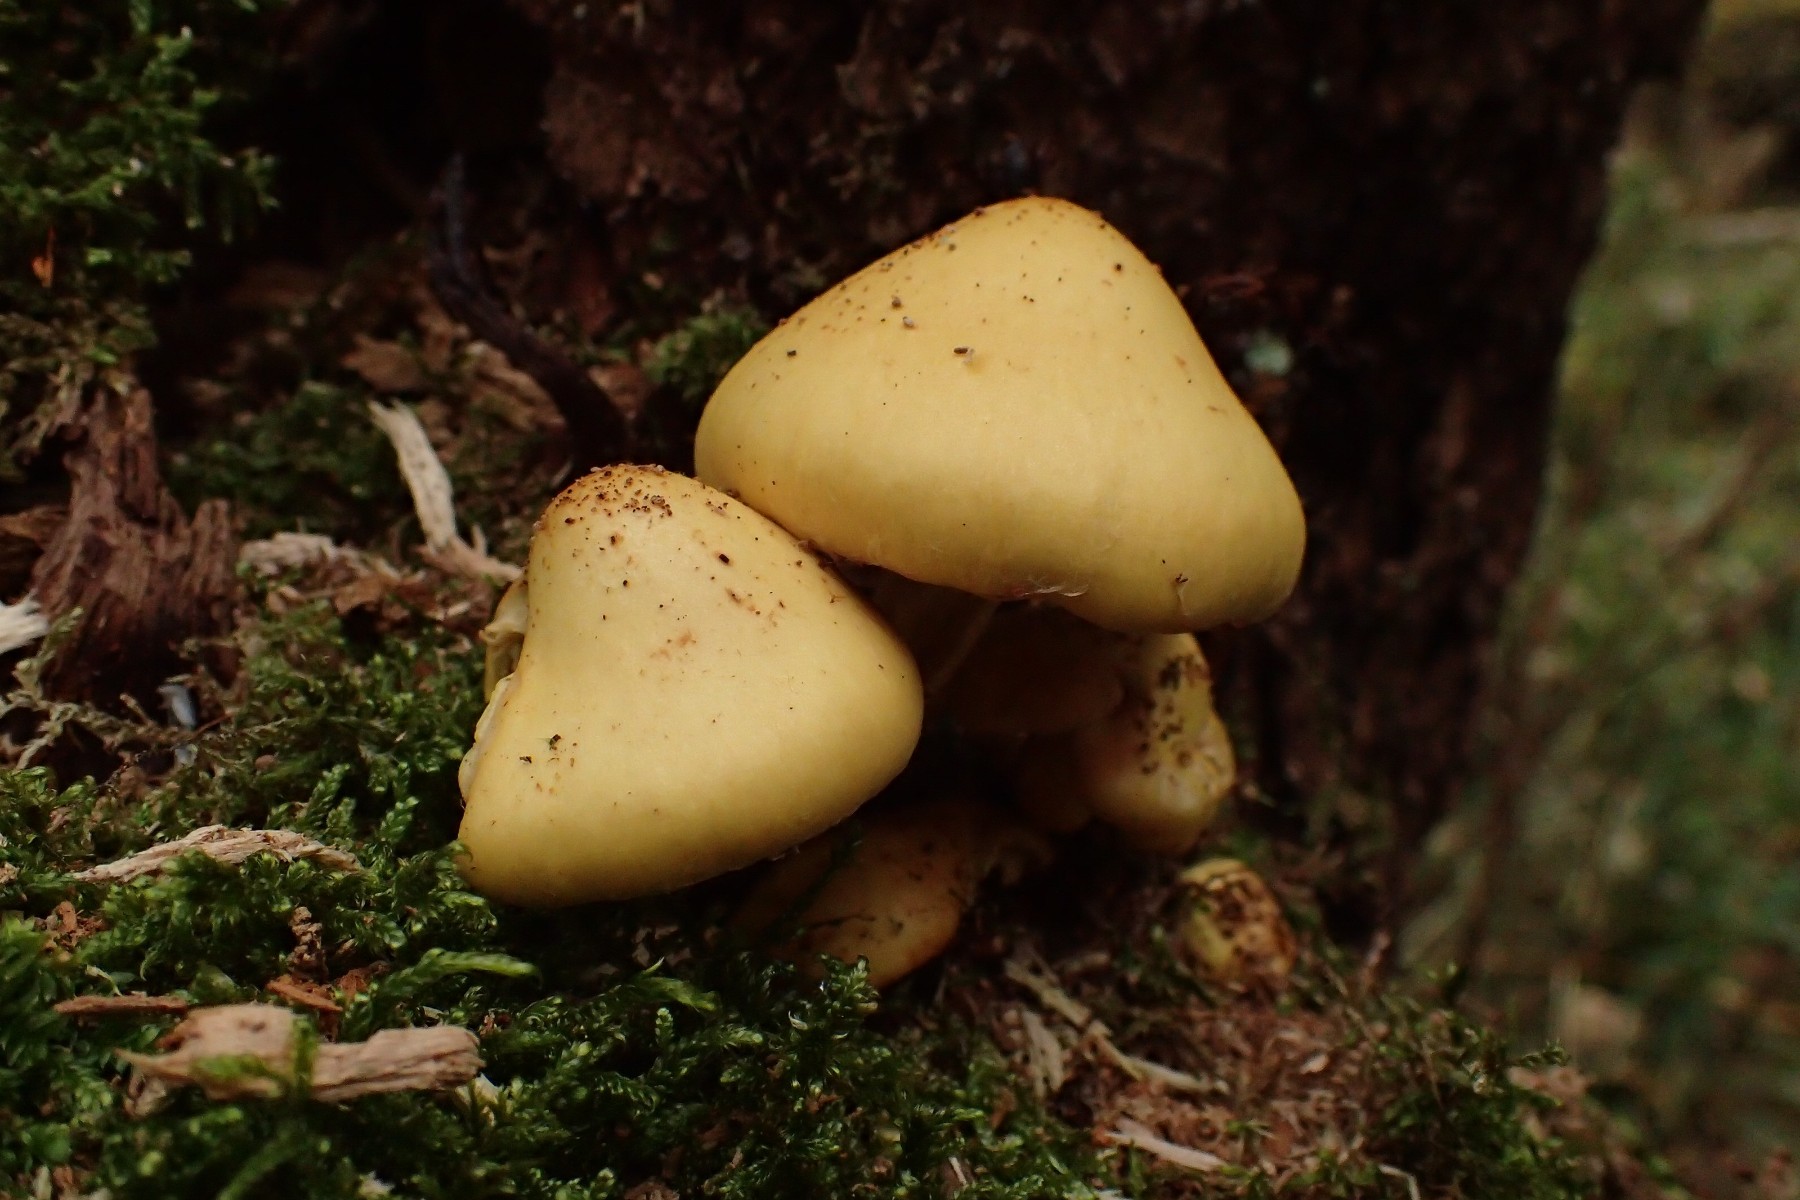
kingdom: Fungi
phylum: Basidiomycota
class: Agaricomycetes
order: Agaricales
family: Hymenogastraceae
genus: Flammula
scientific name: Flammula alnicola
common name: elle-skælhat
